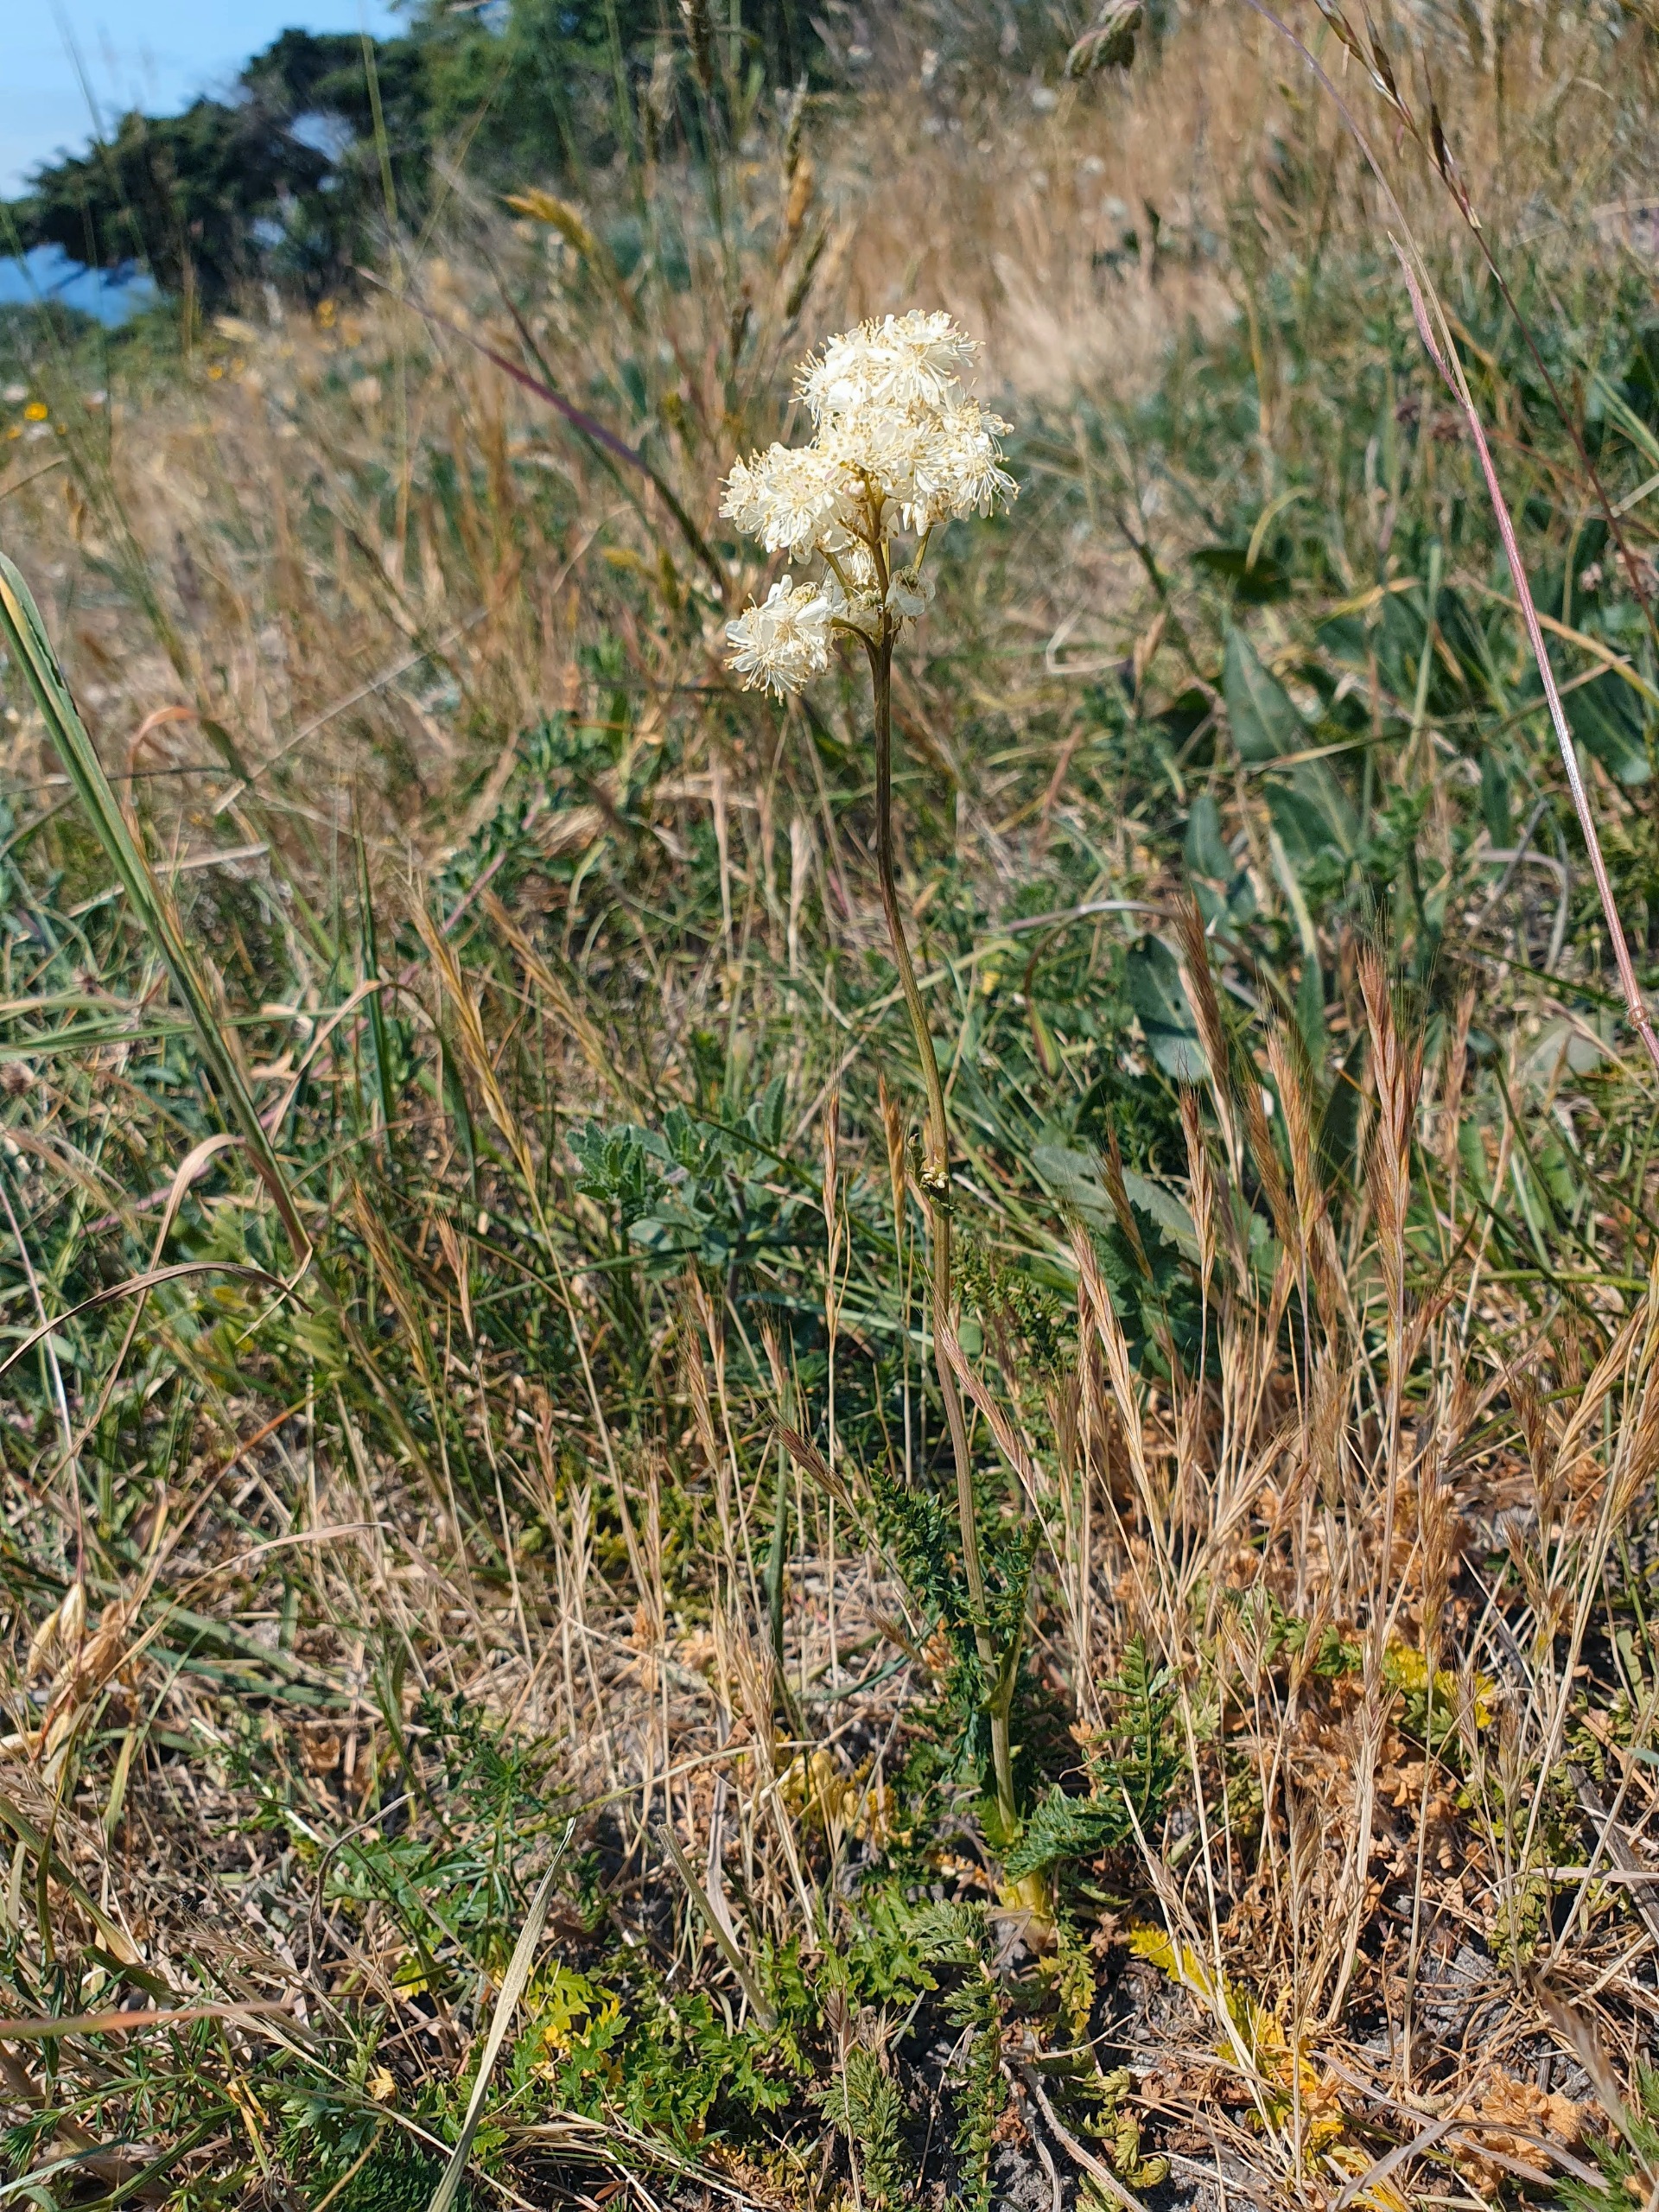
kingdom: Plantae
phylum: Tracheophyta
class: Magnoliopsida
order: Rosales
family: Rosaceae
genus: Filipendula
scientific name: Filipendula vulgaris
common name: Knoldet mjødurt
